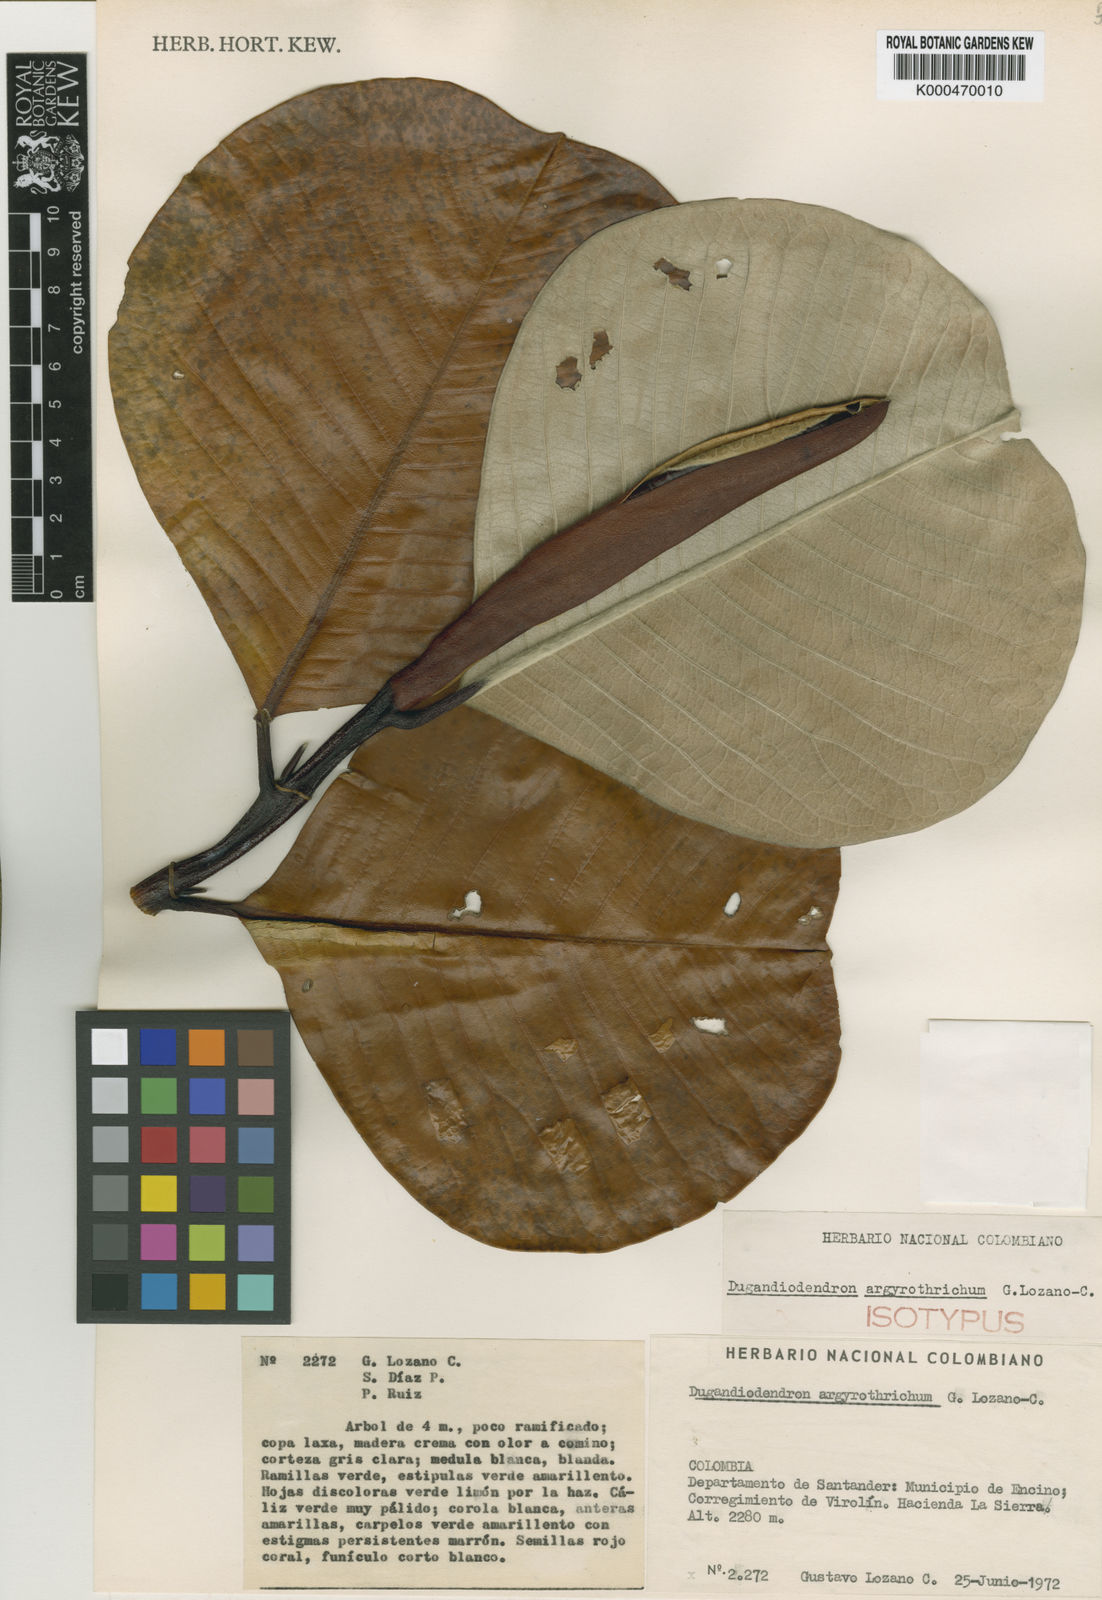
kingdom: Plantae
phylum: Tracheophyta
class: Magnoliopsida
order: Magnoliales
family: Magnoliaceae
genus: Magnolia
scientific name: Magnolia
